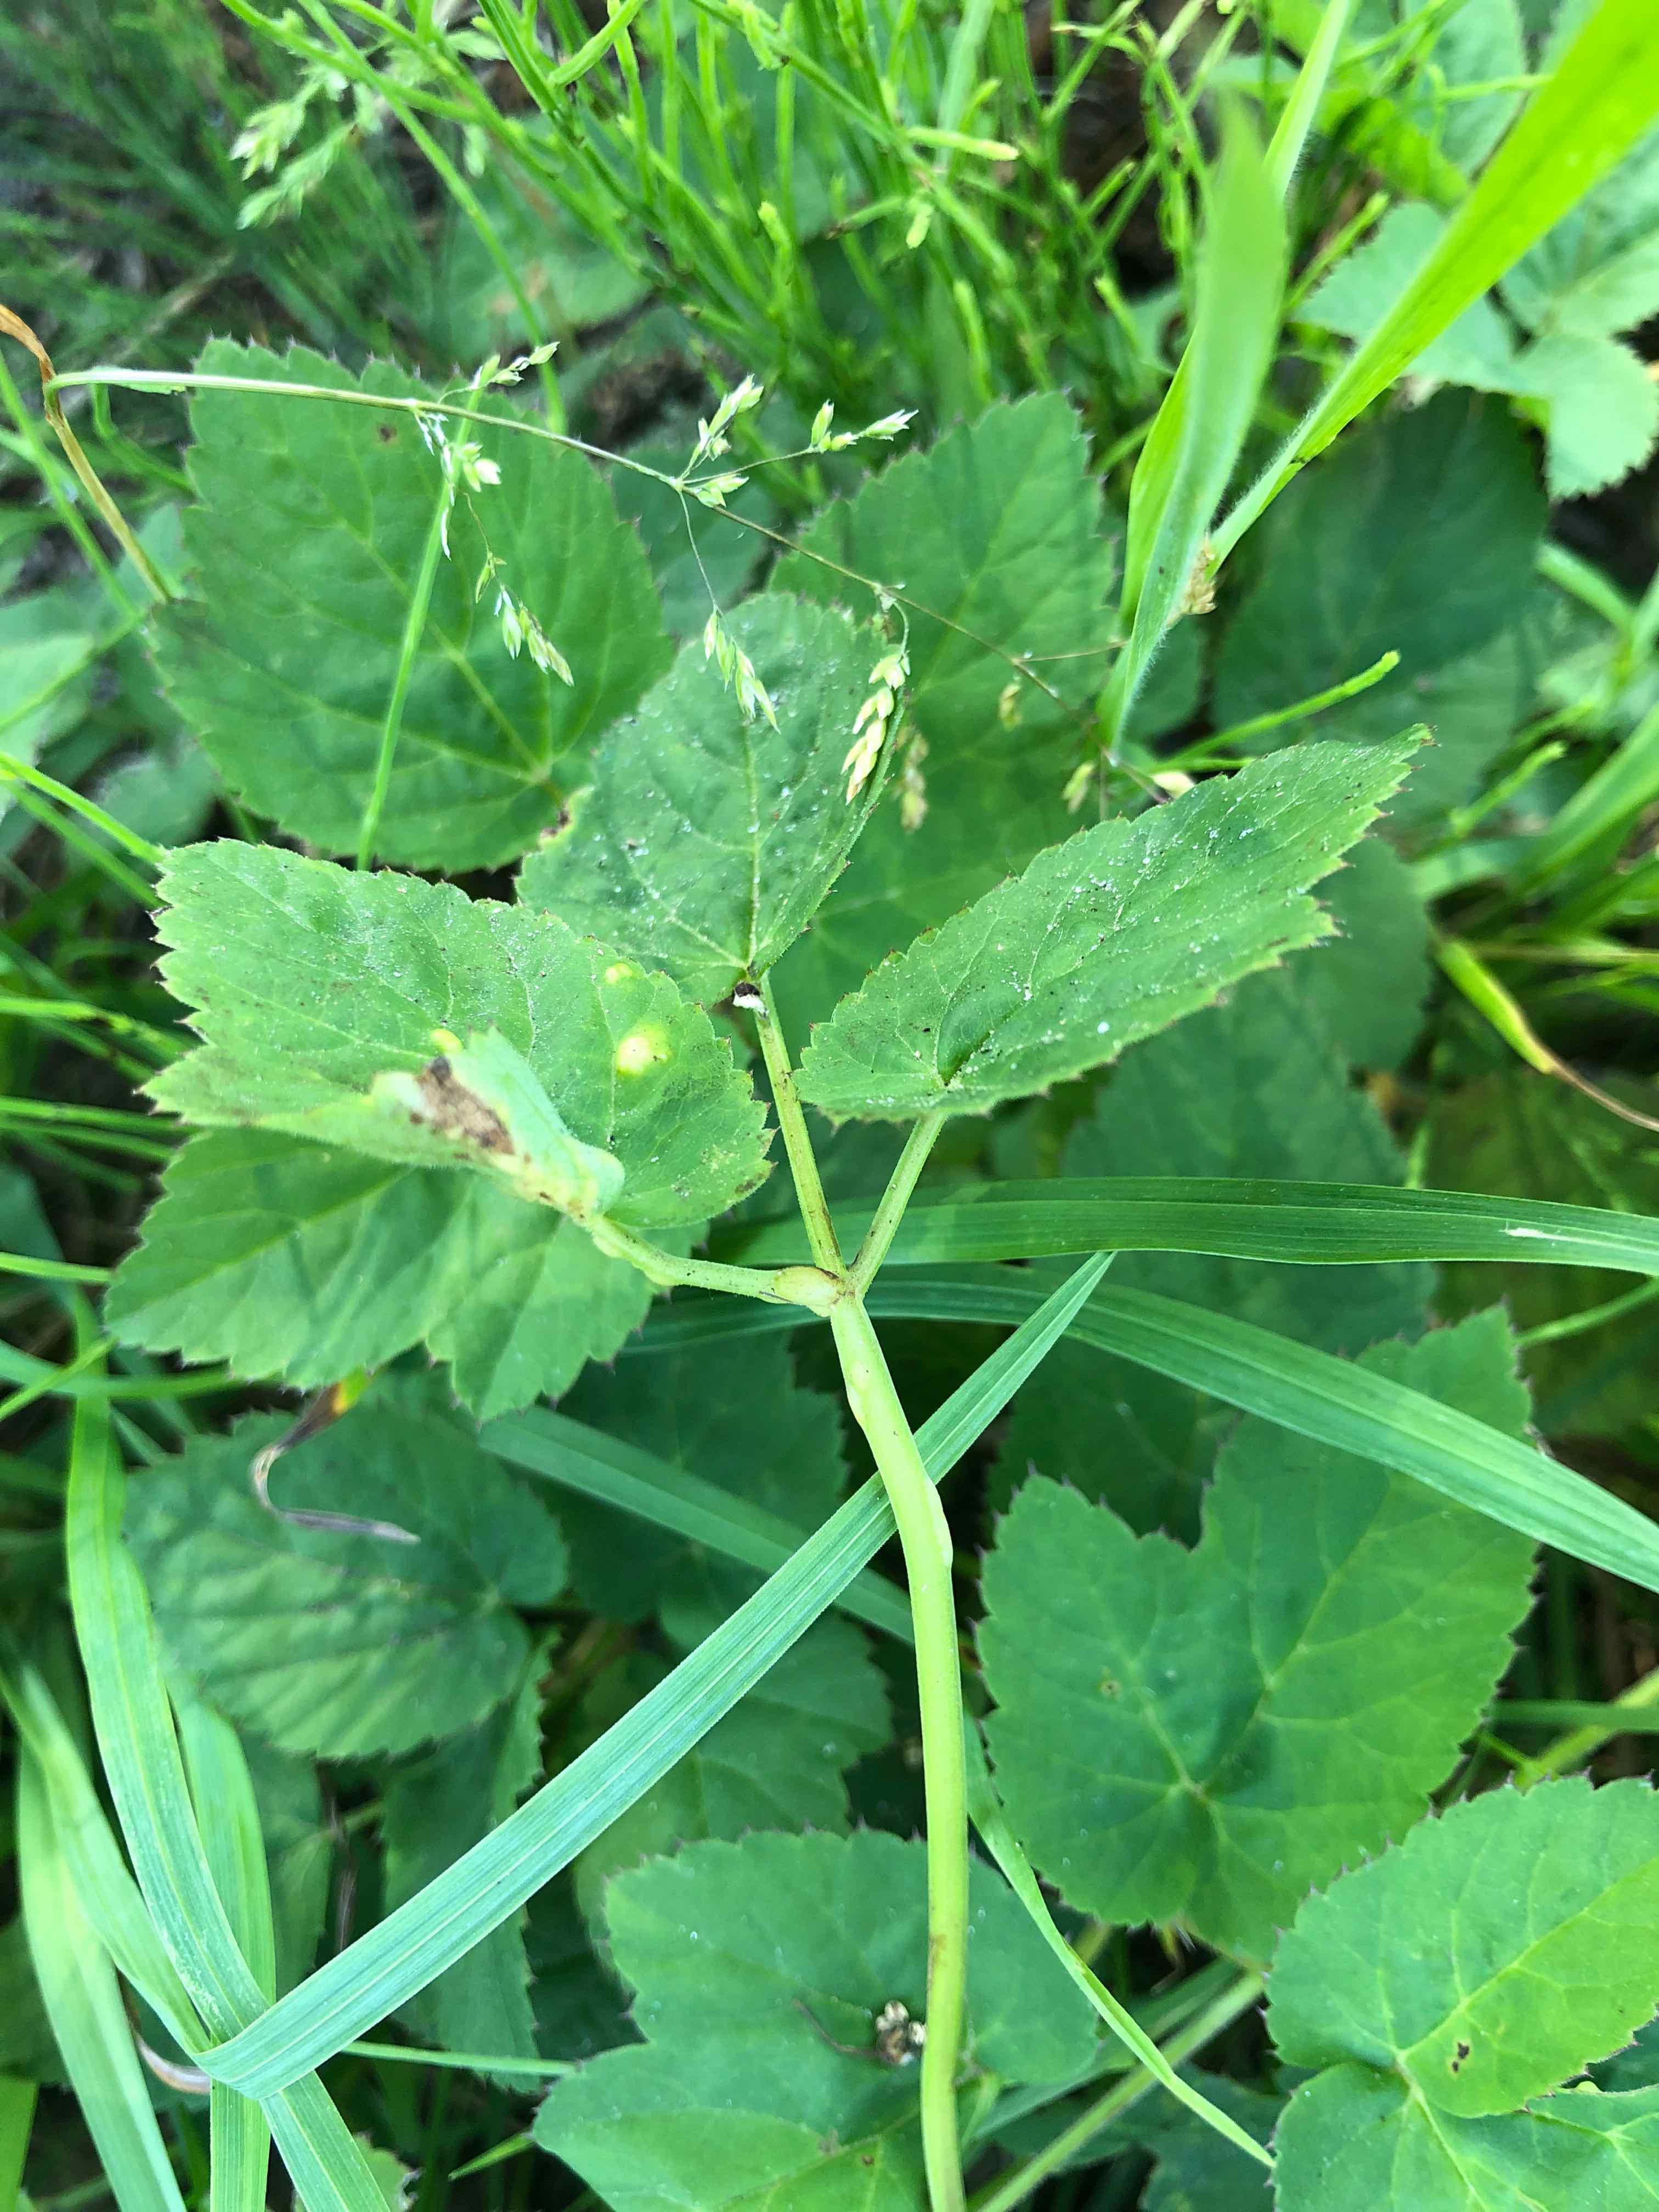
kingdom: Fungi
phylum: Ascomycota
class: Taphrinomycetes
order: Taphrinales
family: Taphrinaceae
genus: Protomyces
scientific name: Protomyces macrosporus
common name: skvalderkål-vablesæk
